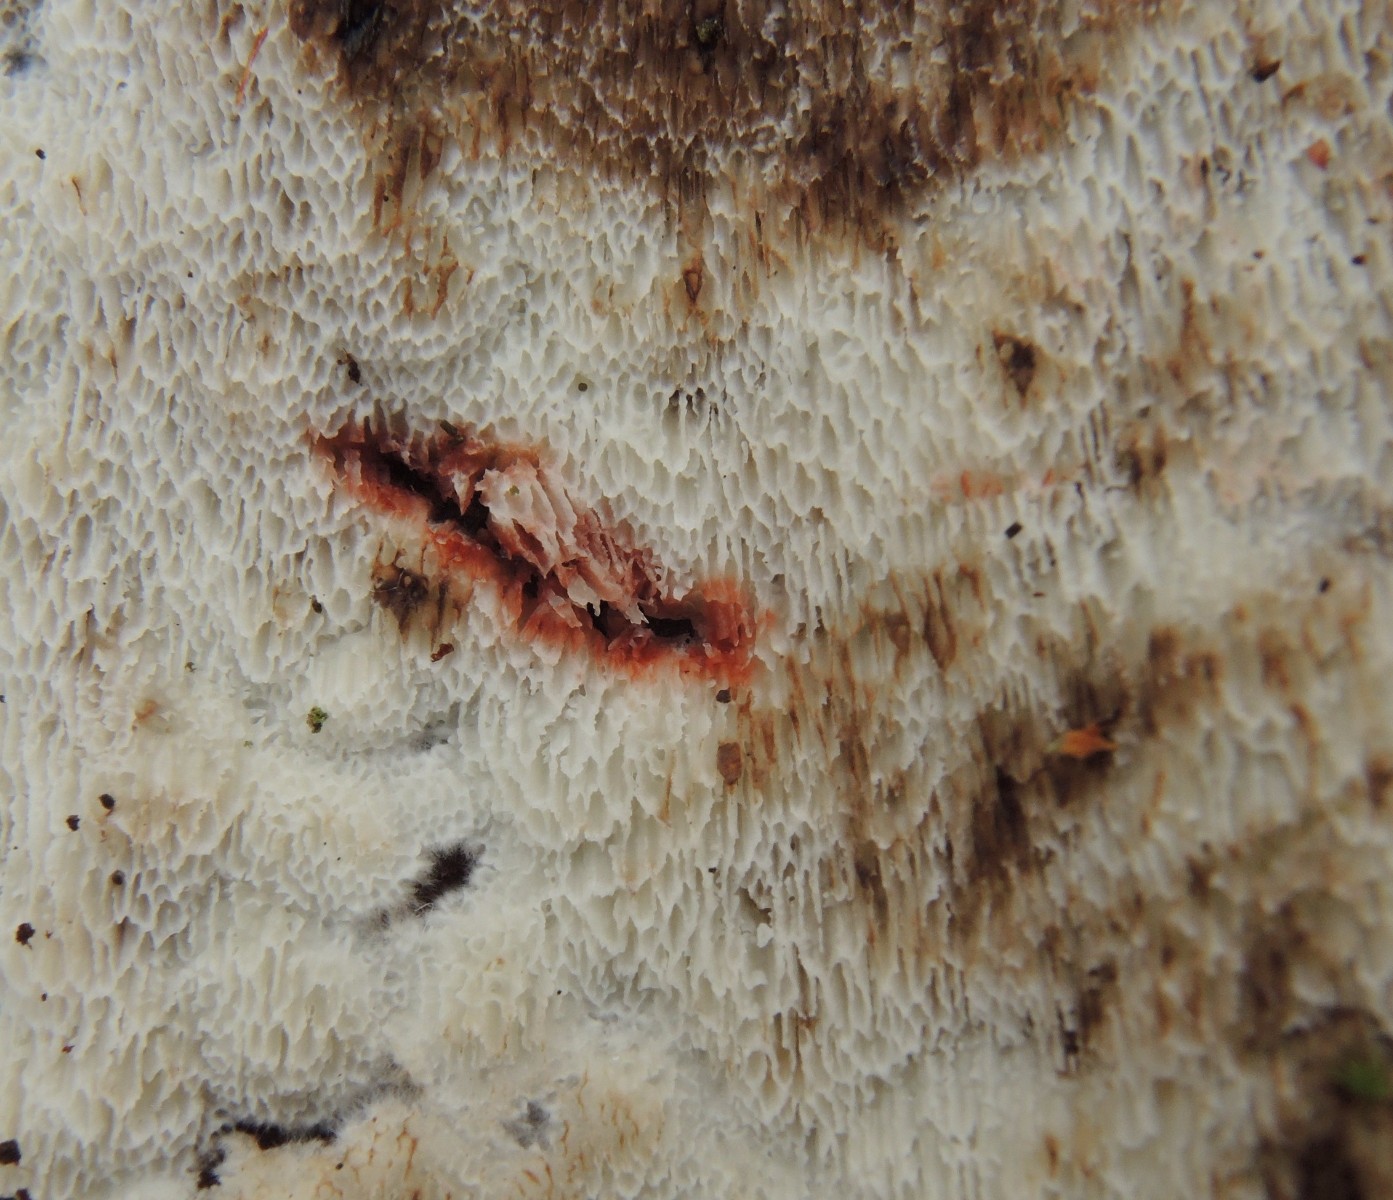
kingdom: Fungi
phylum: Basidiomycota
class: Agaricomycetes
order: Polyporales
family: Meripilaceae
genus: Rigidoporus
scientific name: Rigidoporus sanguinolentus
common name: blod-skorpeporesvamp
